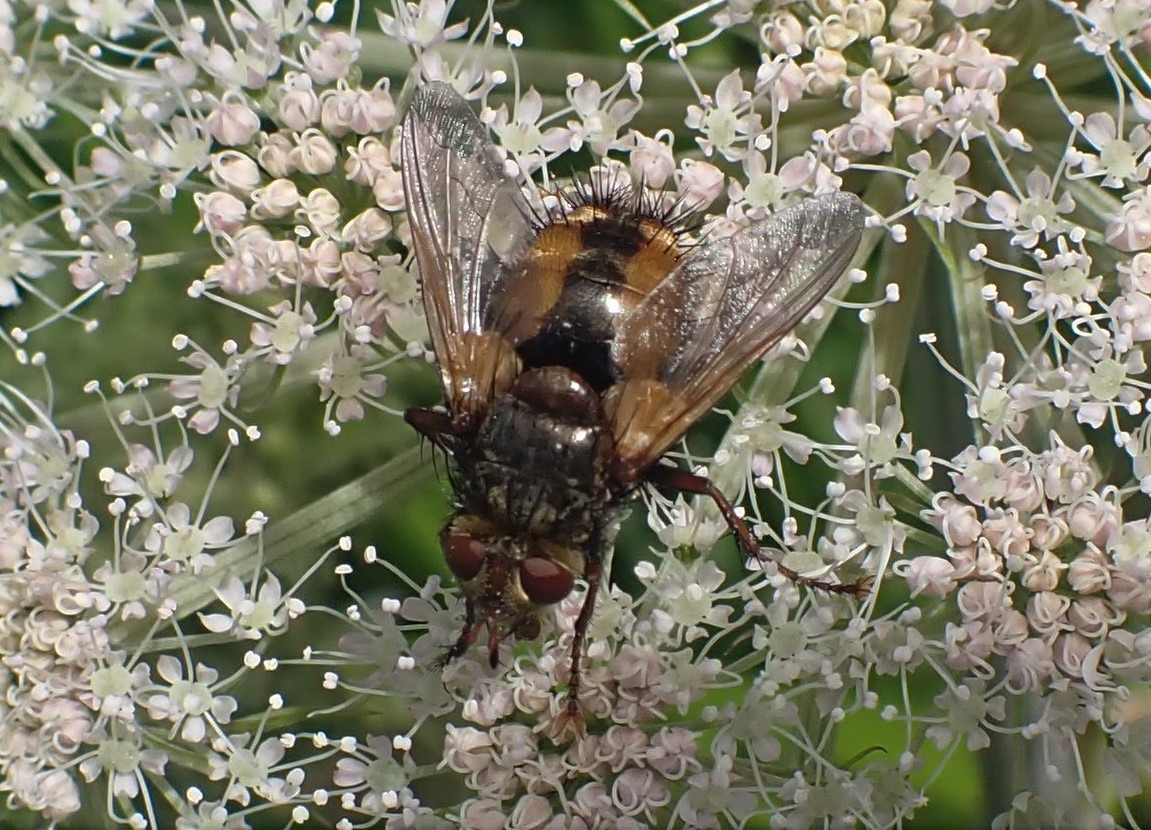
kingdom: Animalia
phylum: Arthropoda
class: Insecta
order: Diptera
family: Tachinidae
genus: Tachina
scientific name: Tachina fera
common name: Mellemfluen oskar
